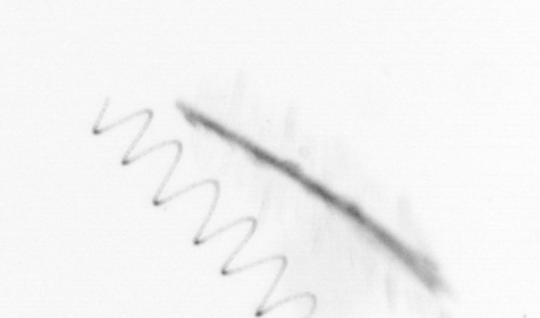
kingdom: Chromista
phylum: Ochrophyta
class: Bacillariophyceae
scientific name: Bacillariophyceae
